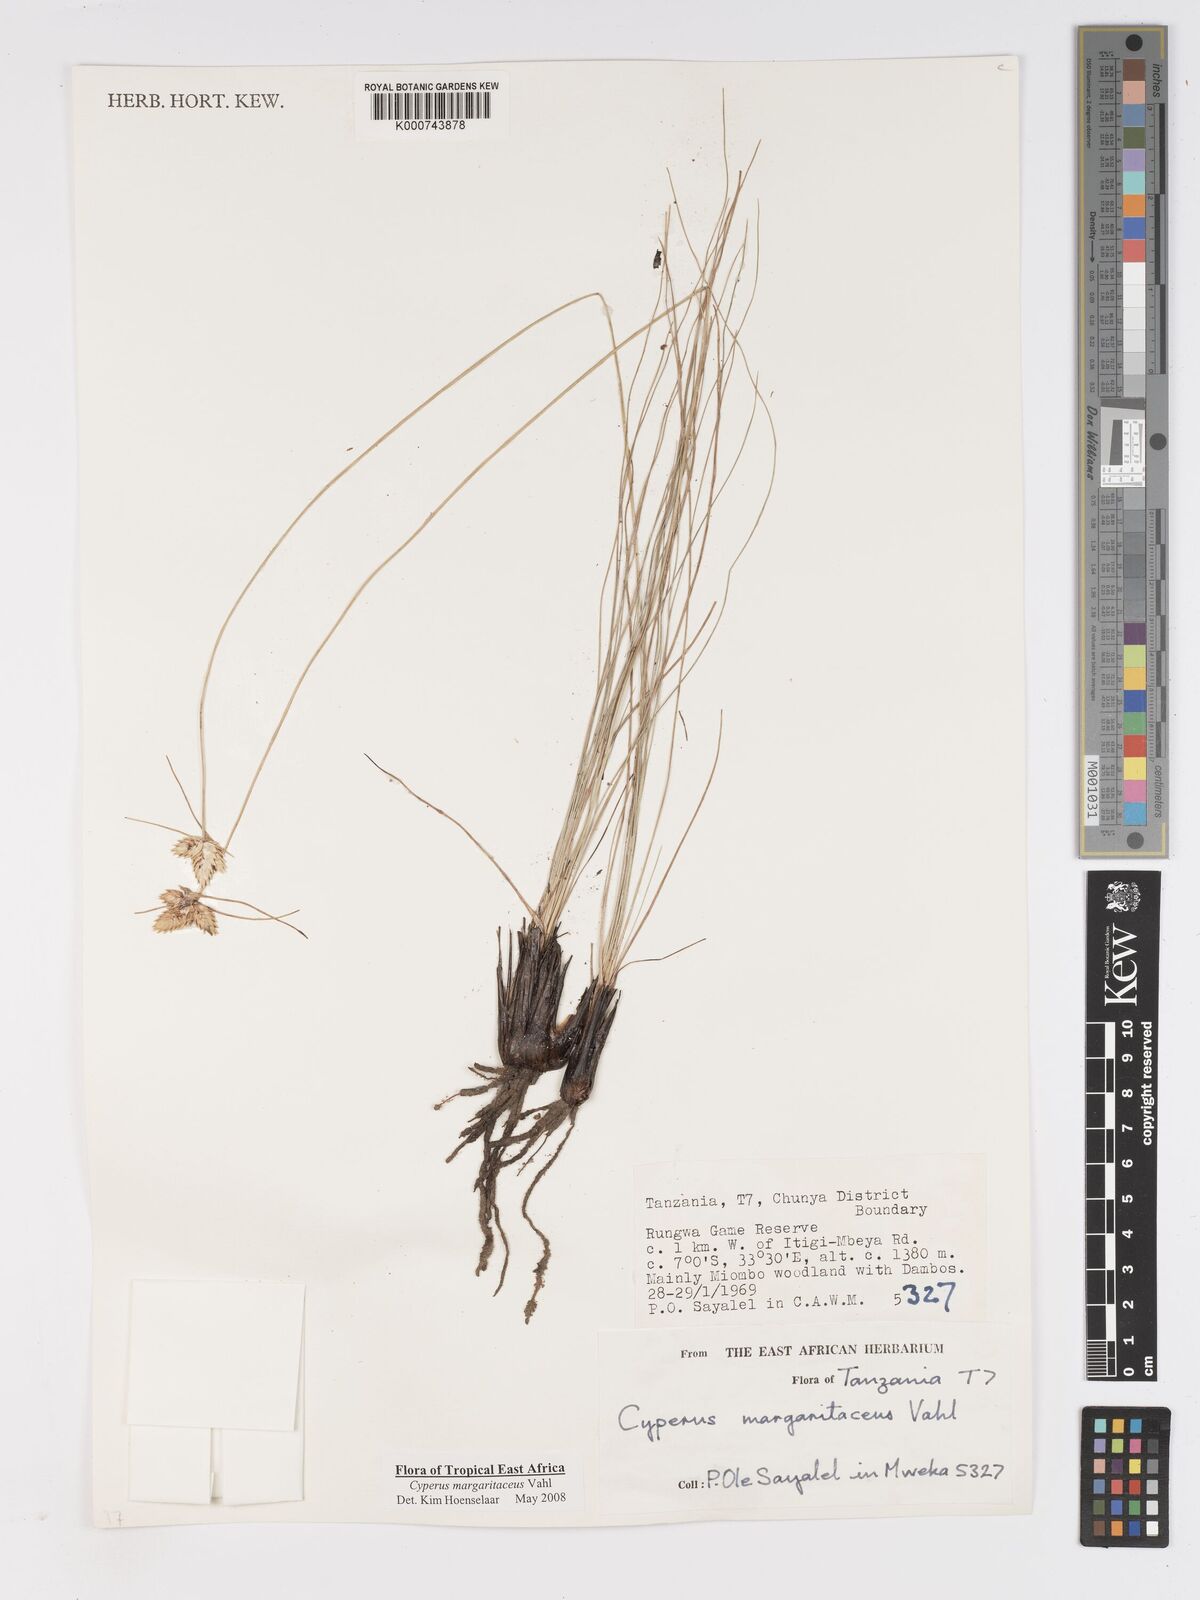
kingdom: Plantae
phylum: Tracheophyta
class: Liliopsida
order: Poales
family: Cyperaceae
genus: Cyperus
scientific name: Cyperus margaritaceus
